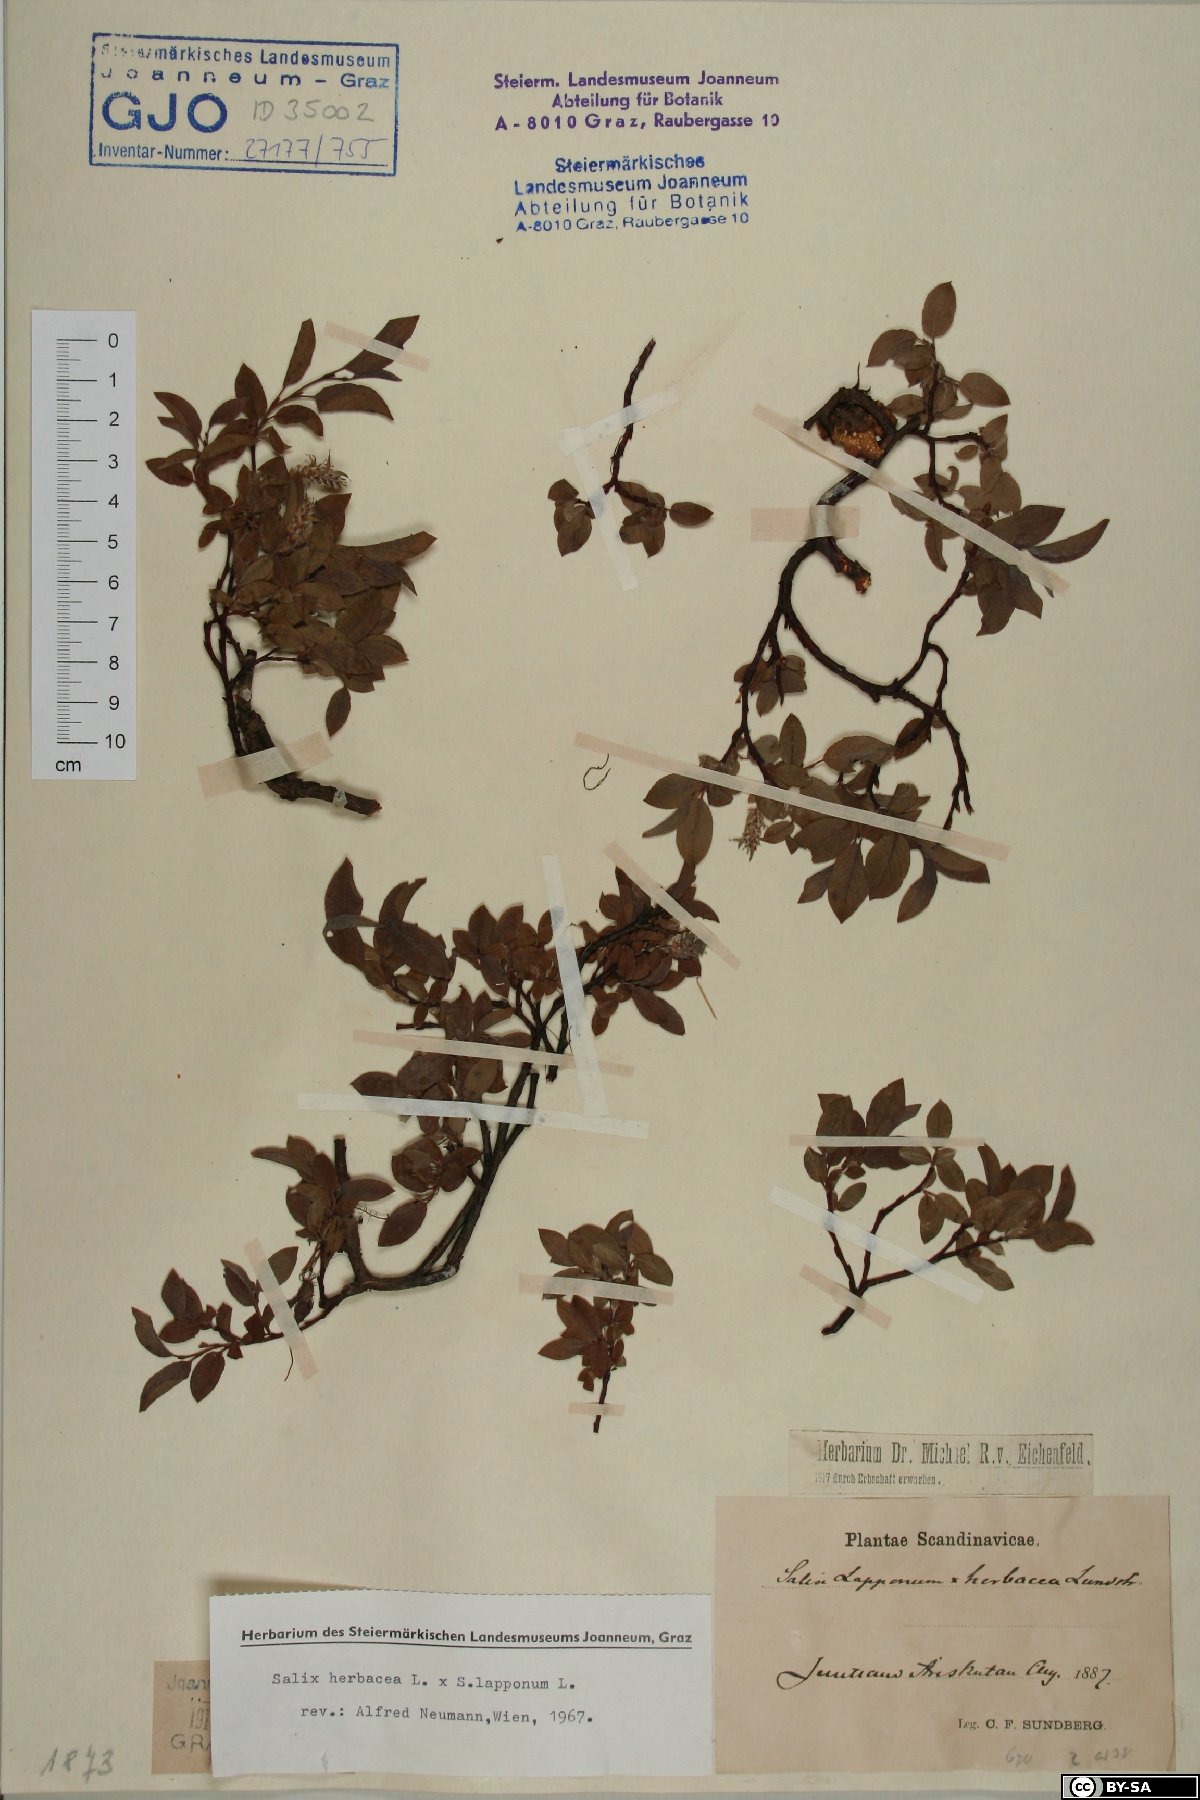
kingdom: Plantae
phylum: Tracheophyta
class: Magnoliopsida
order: Malpighiales
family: Salicaceae
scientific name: Salicaceae
